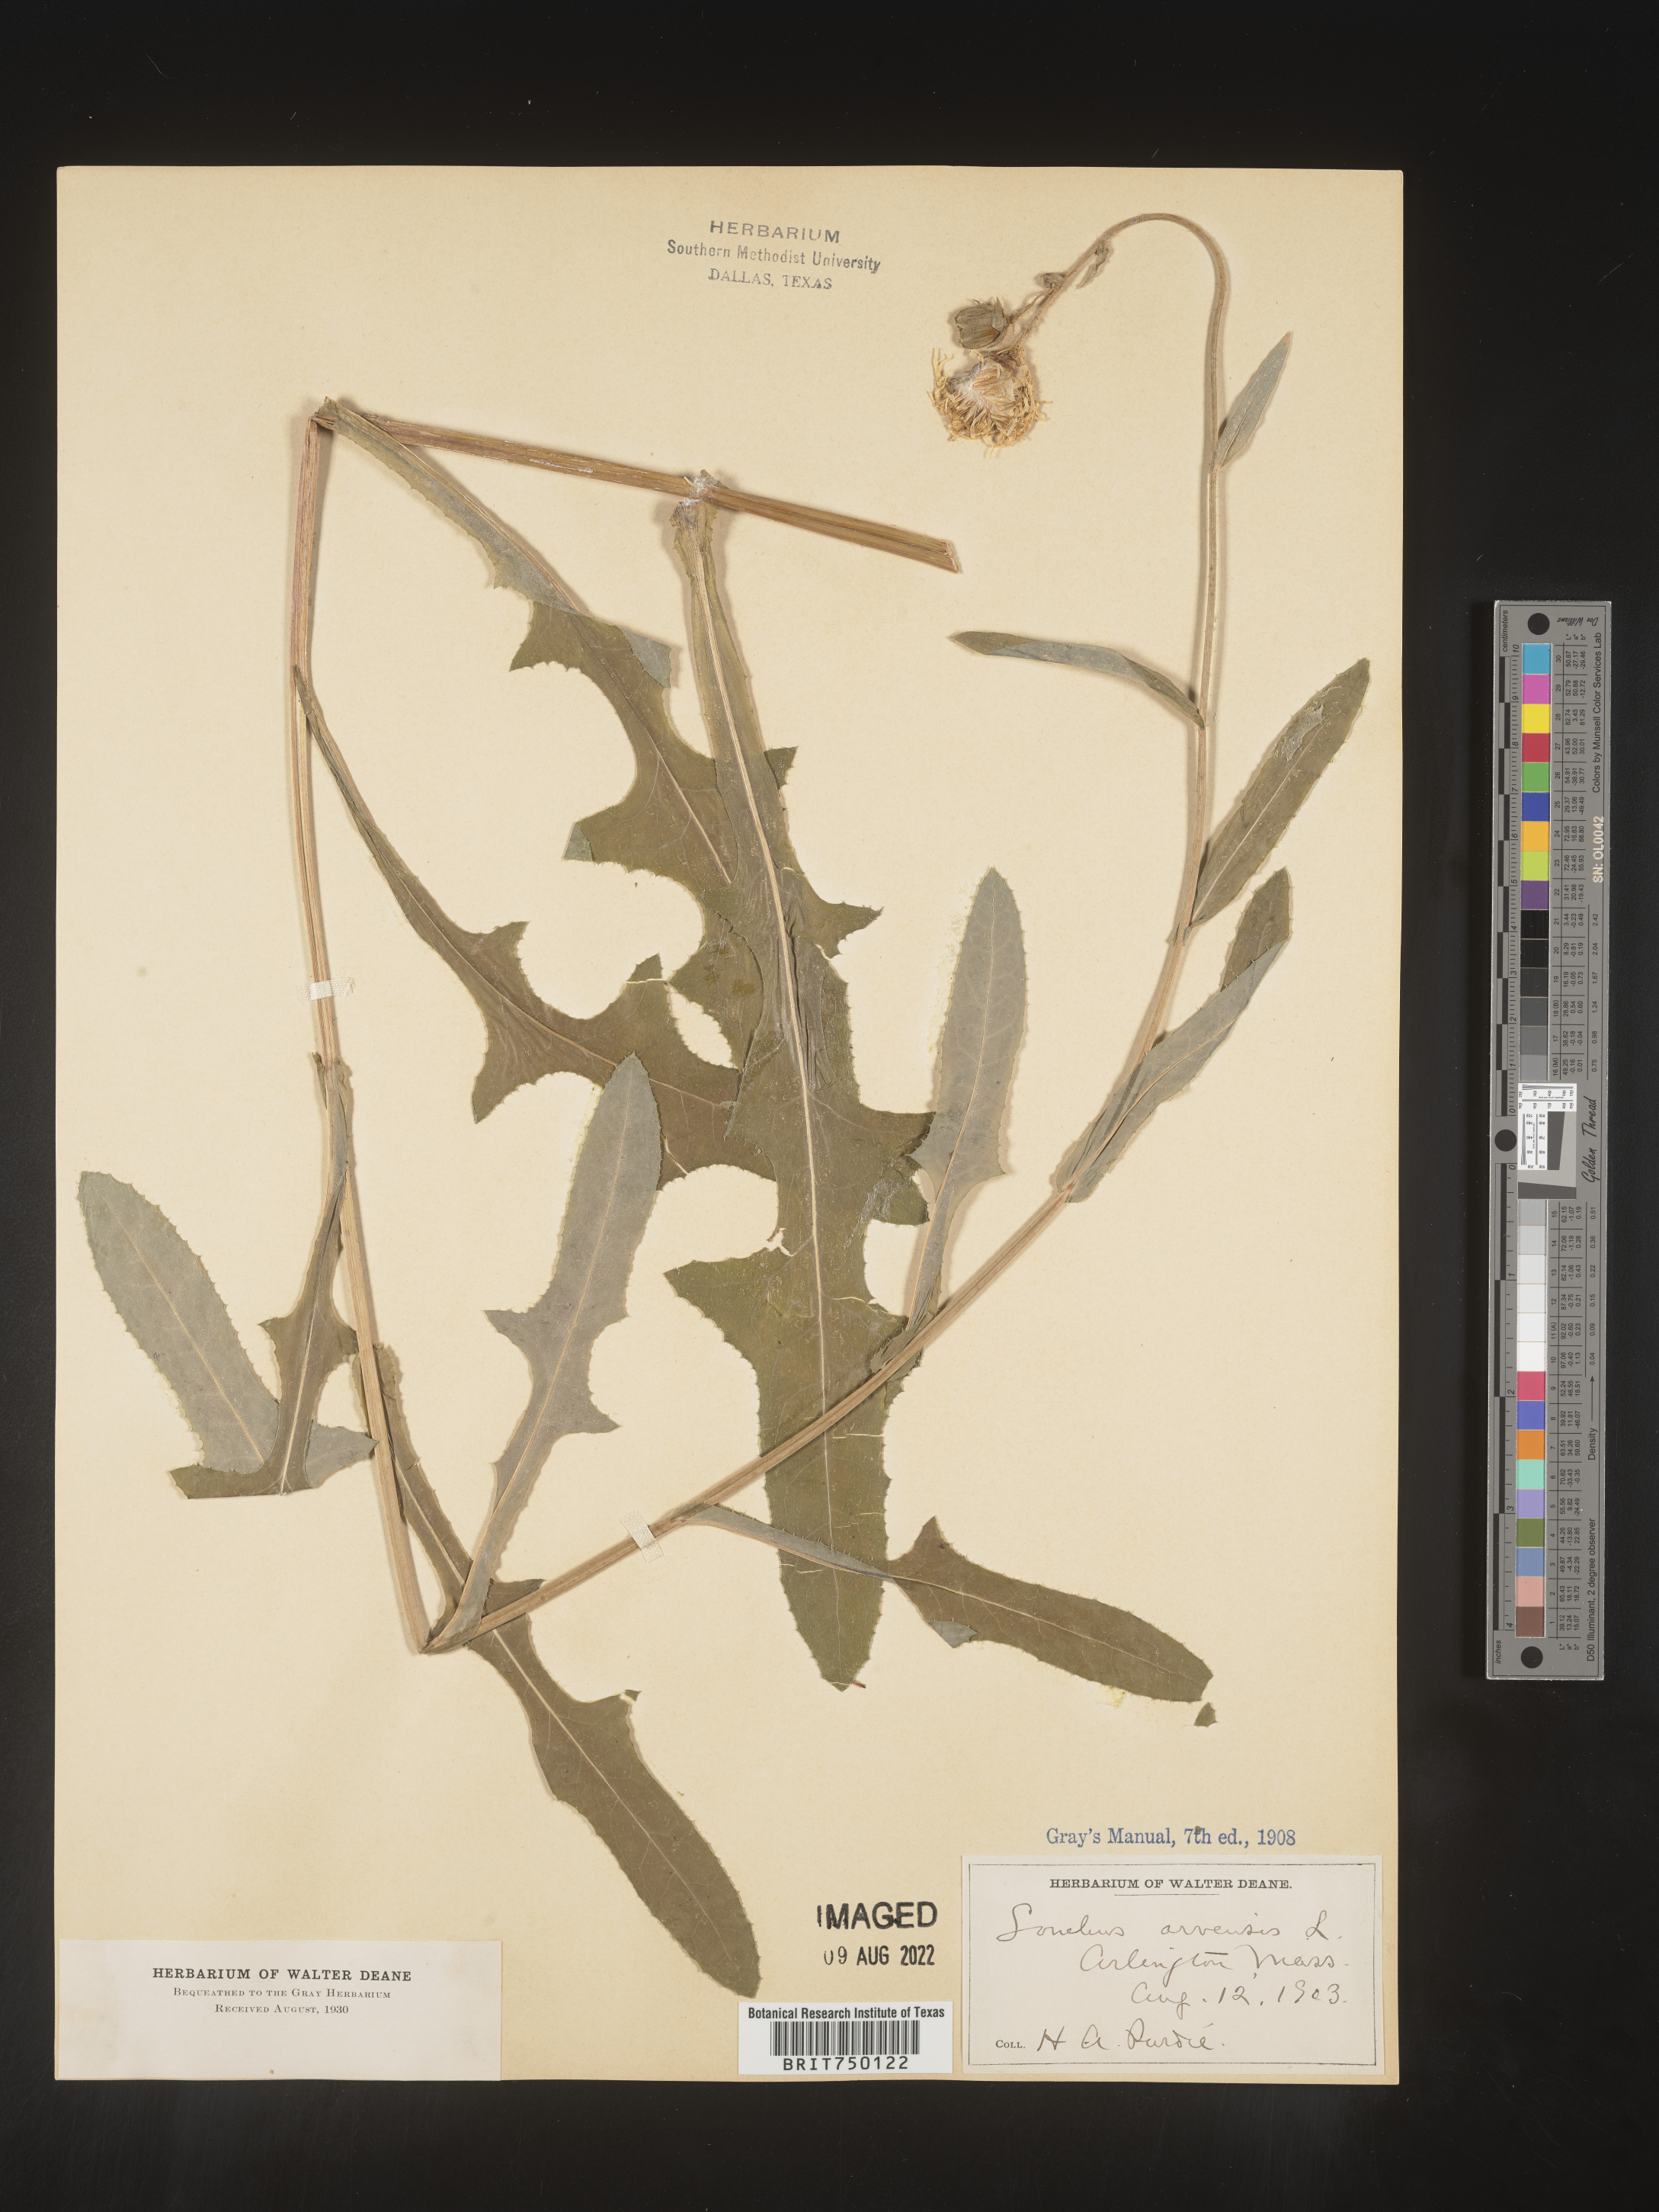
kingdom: Plantae
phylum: Tracheophyta
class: Magnoliopsida
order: Asterales
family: Asteraceae
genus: Sonchus
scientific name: Sonchus arvensis
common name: Perennial sow-thistle
